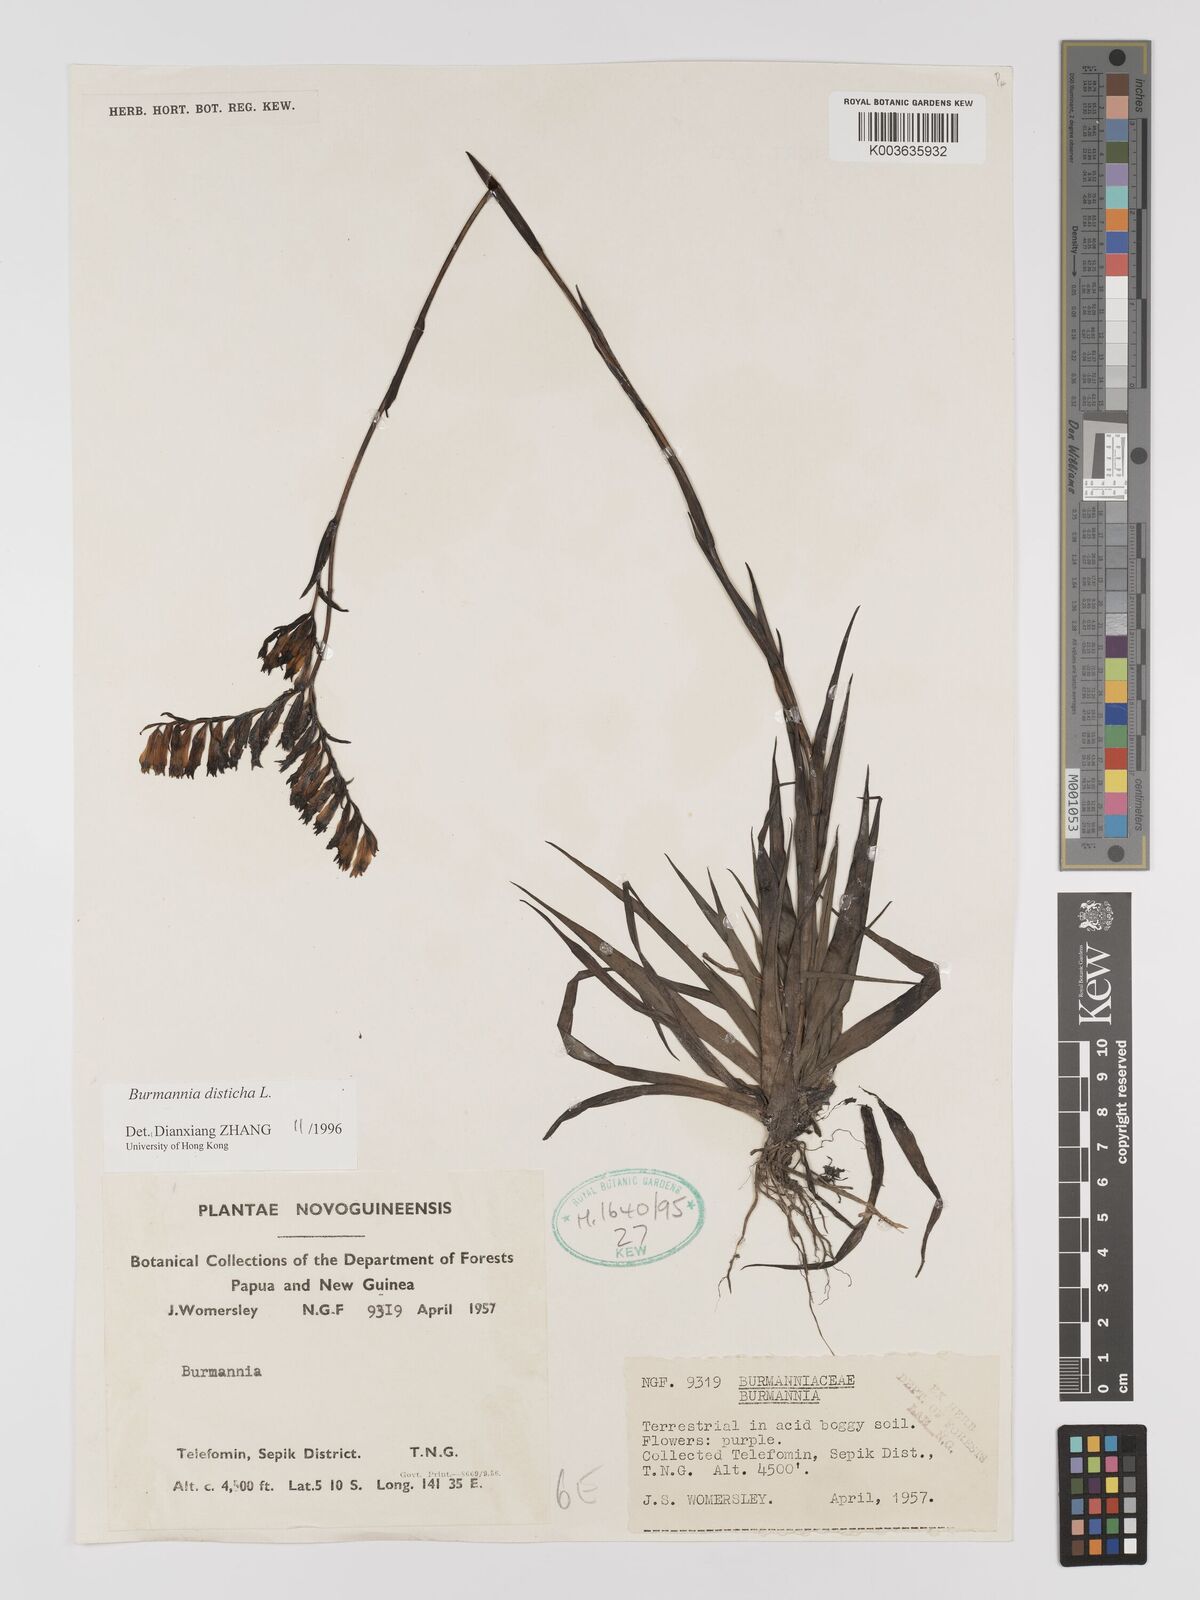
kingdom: Plantae
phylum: Tracheophyta
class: Liliopsida
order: Dioscoreales
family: Burmanniaceae
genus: Burmannia
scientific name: Burmannia disticha
